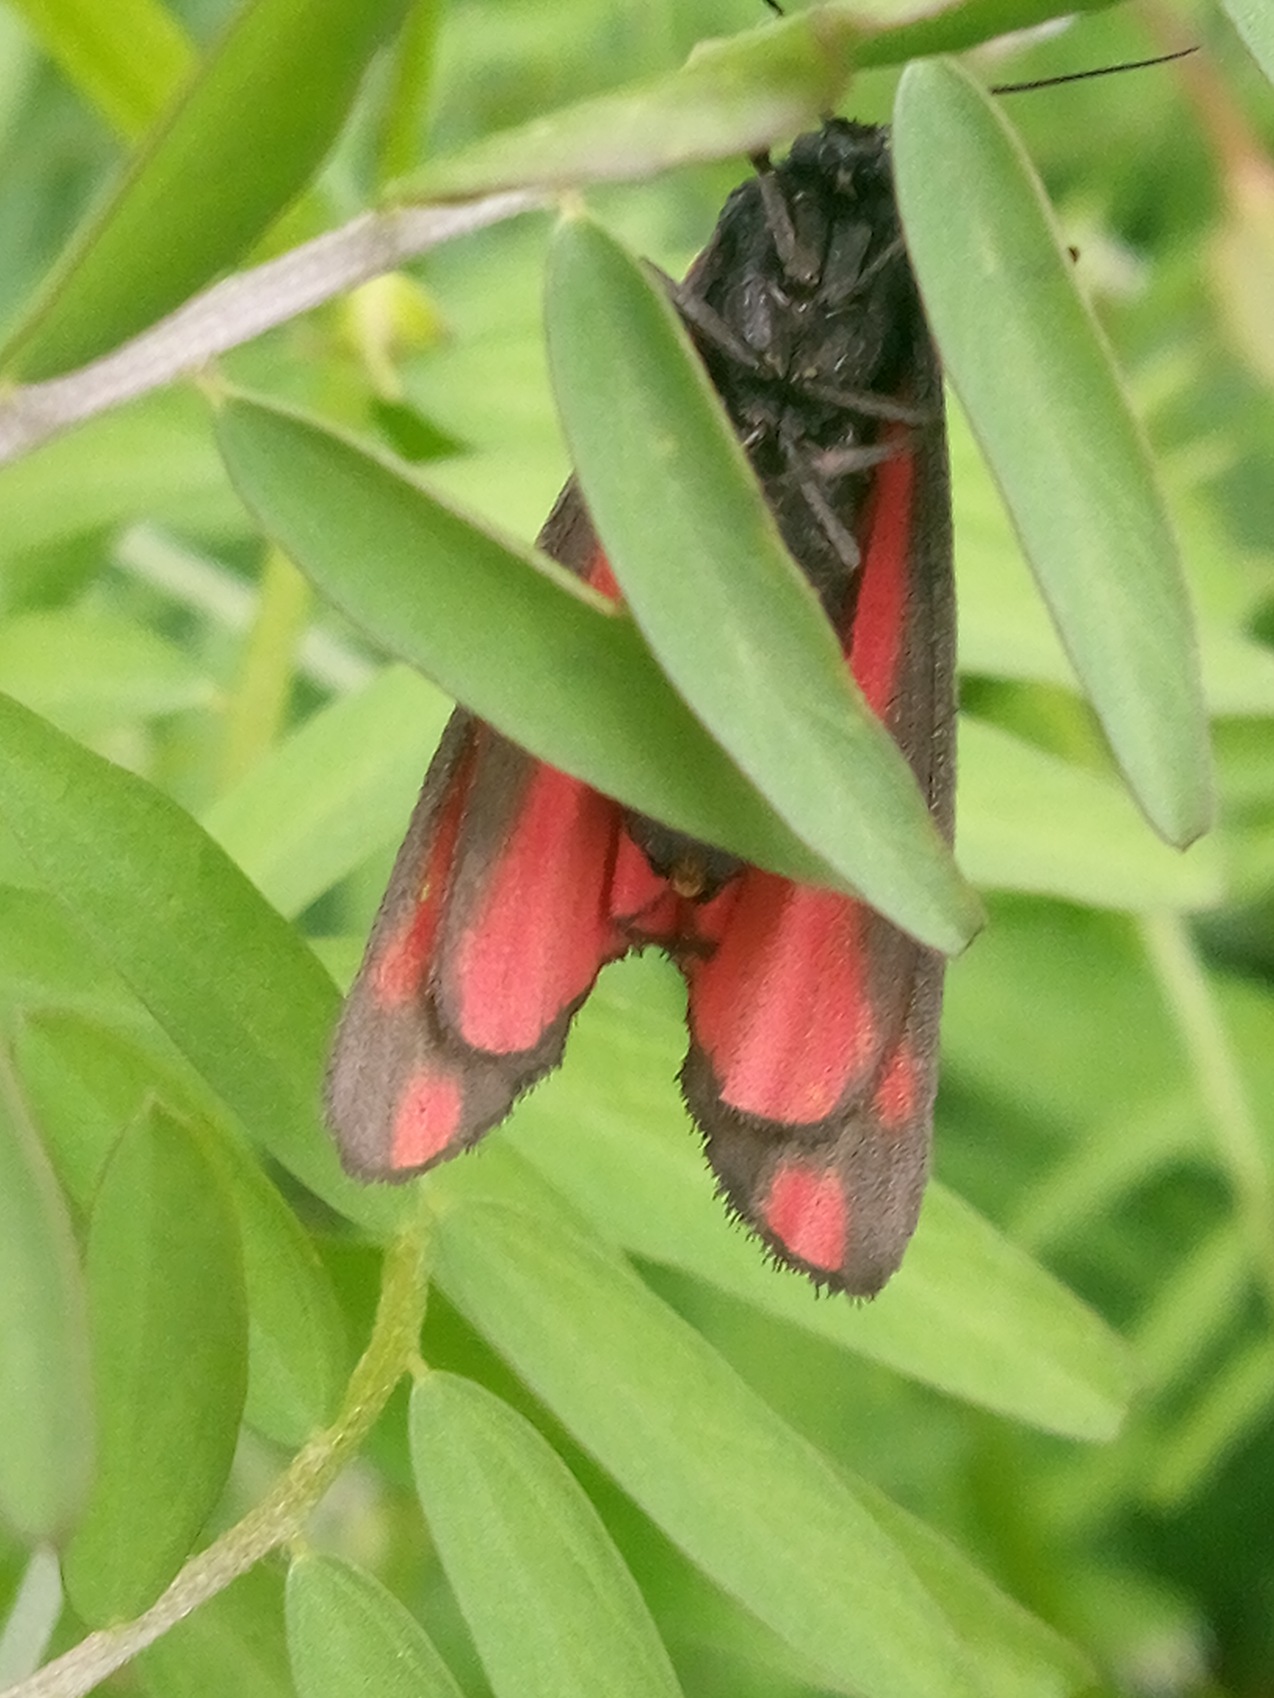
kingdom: Animalia
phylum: Arthropoda
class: Insecta
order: Lepidoptera
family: Erebidae
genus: Tyria
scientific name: Tyria jacobaeae
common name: Blodplet
